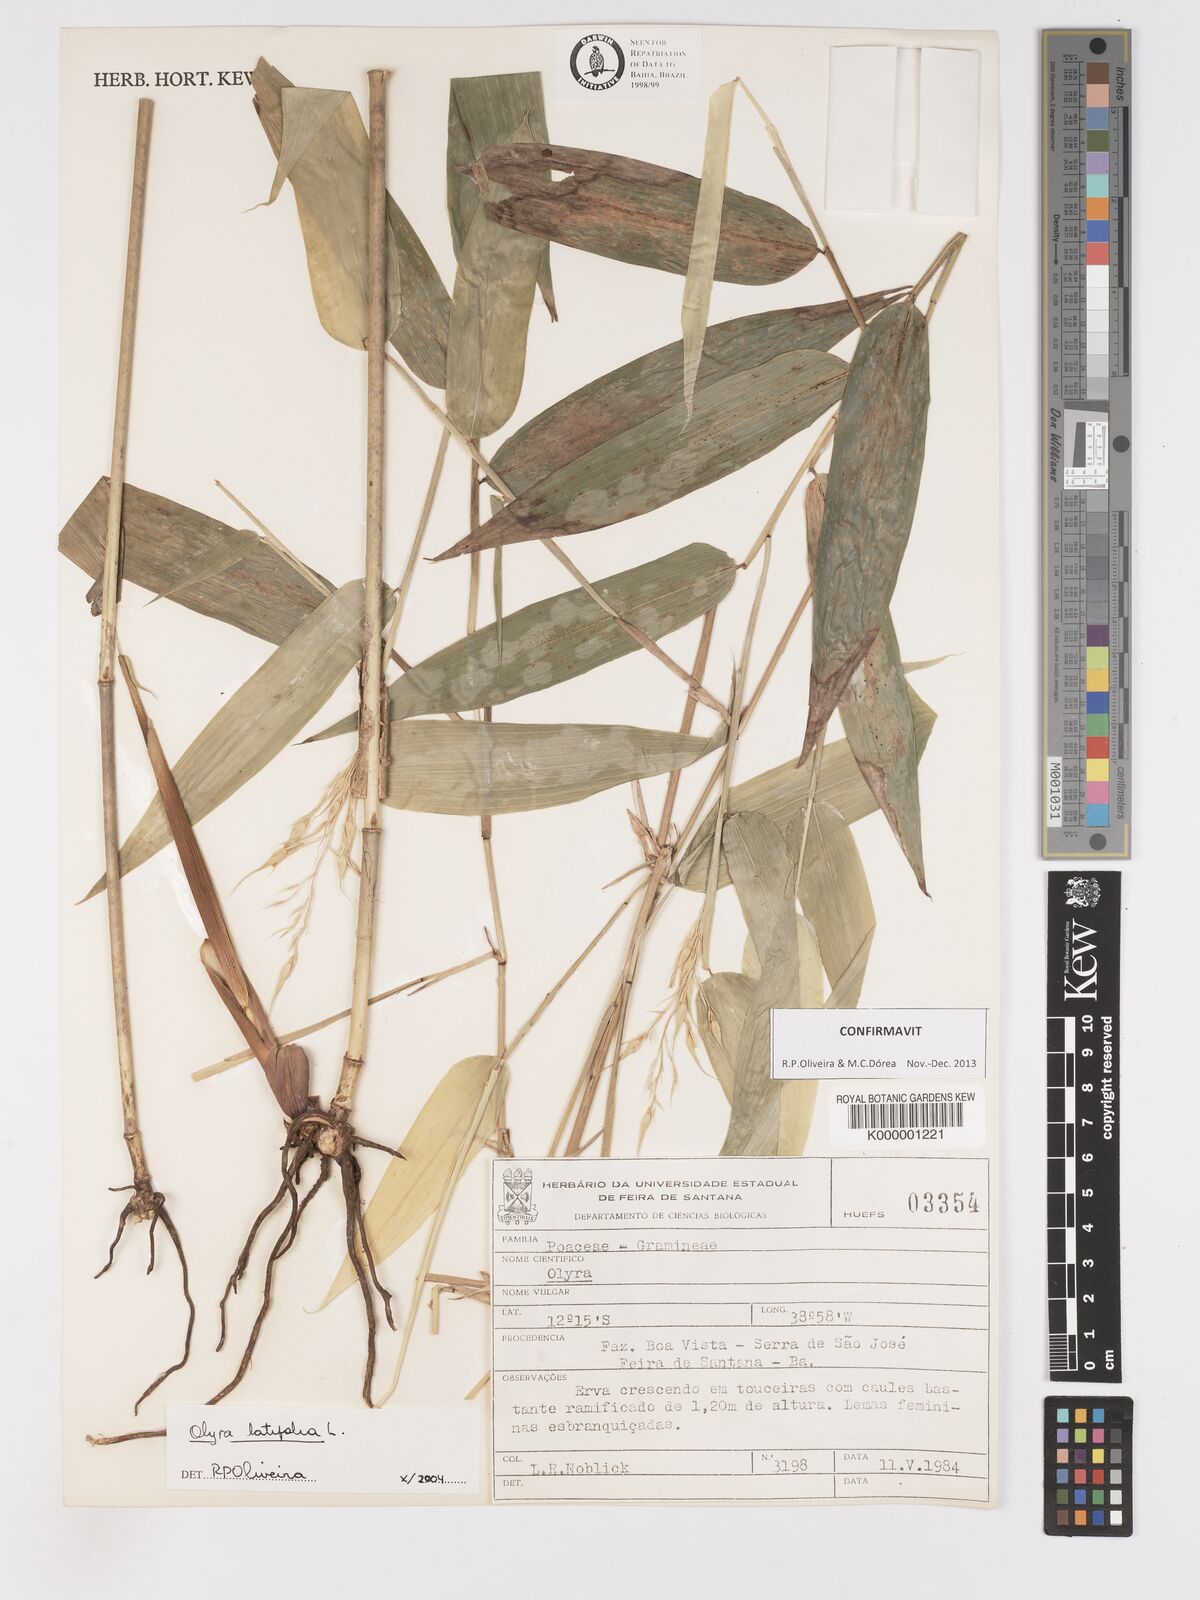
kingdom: Plantae
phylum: Tracheophyta
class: Liliopsida
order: Poales
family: Poaceae
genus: Cryptochloa
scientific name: Cryptochloa capillata
